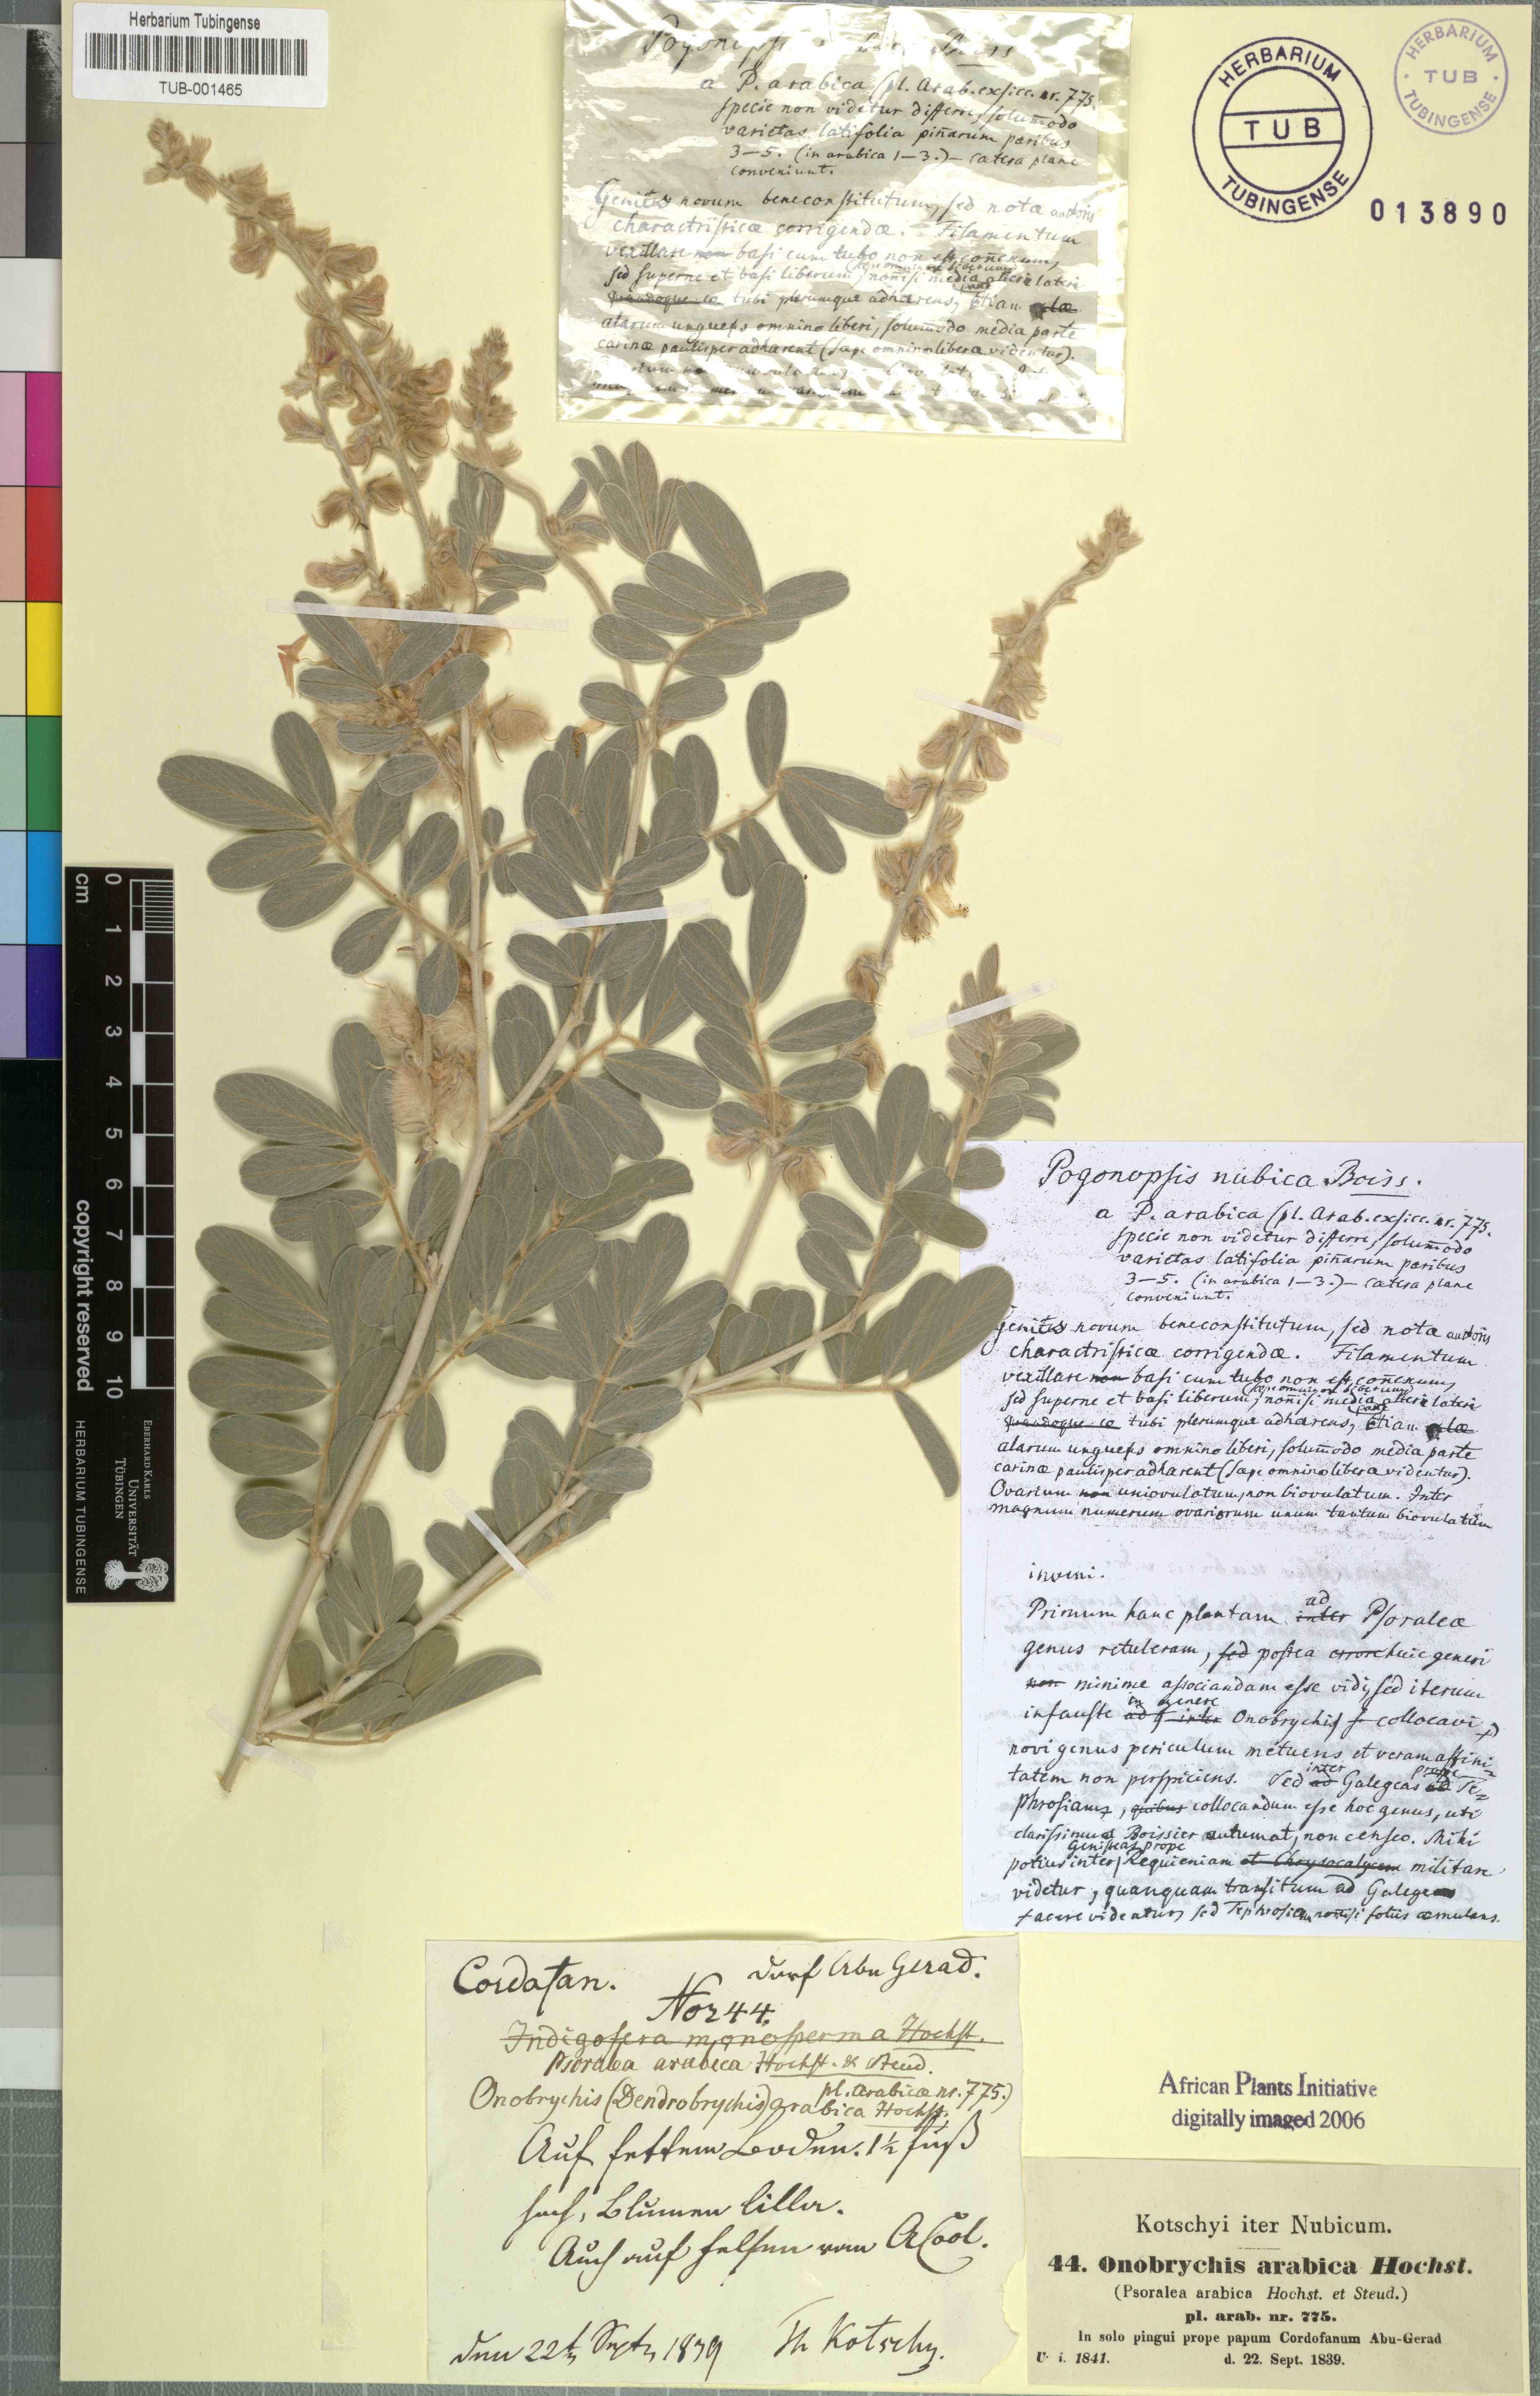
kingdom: Plantae
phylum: Tracheophyta
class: Magnoliopsida
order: Fabales
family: Fabaceae
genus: Onobrychis
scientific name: Onobrychis
